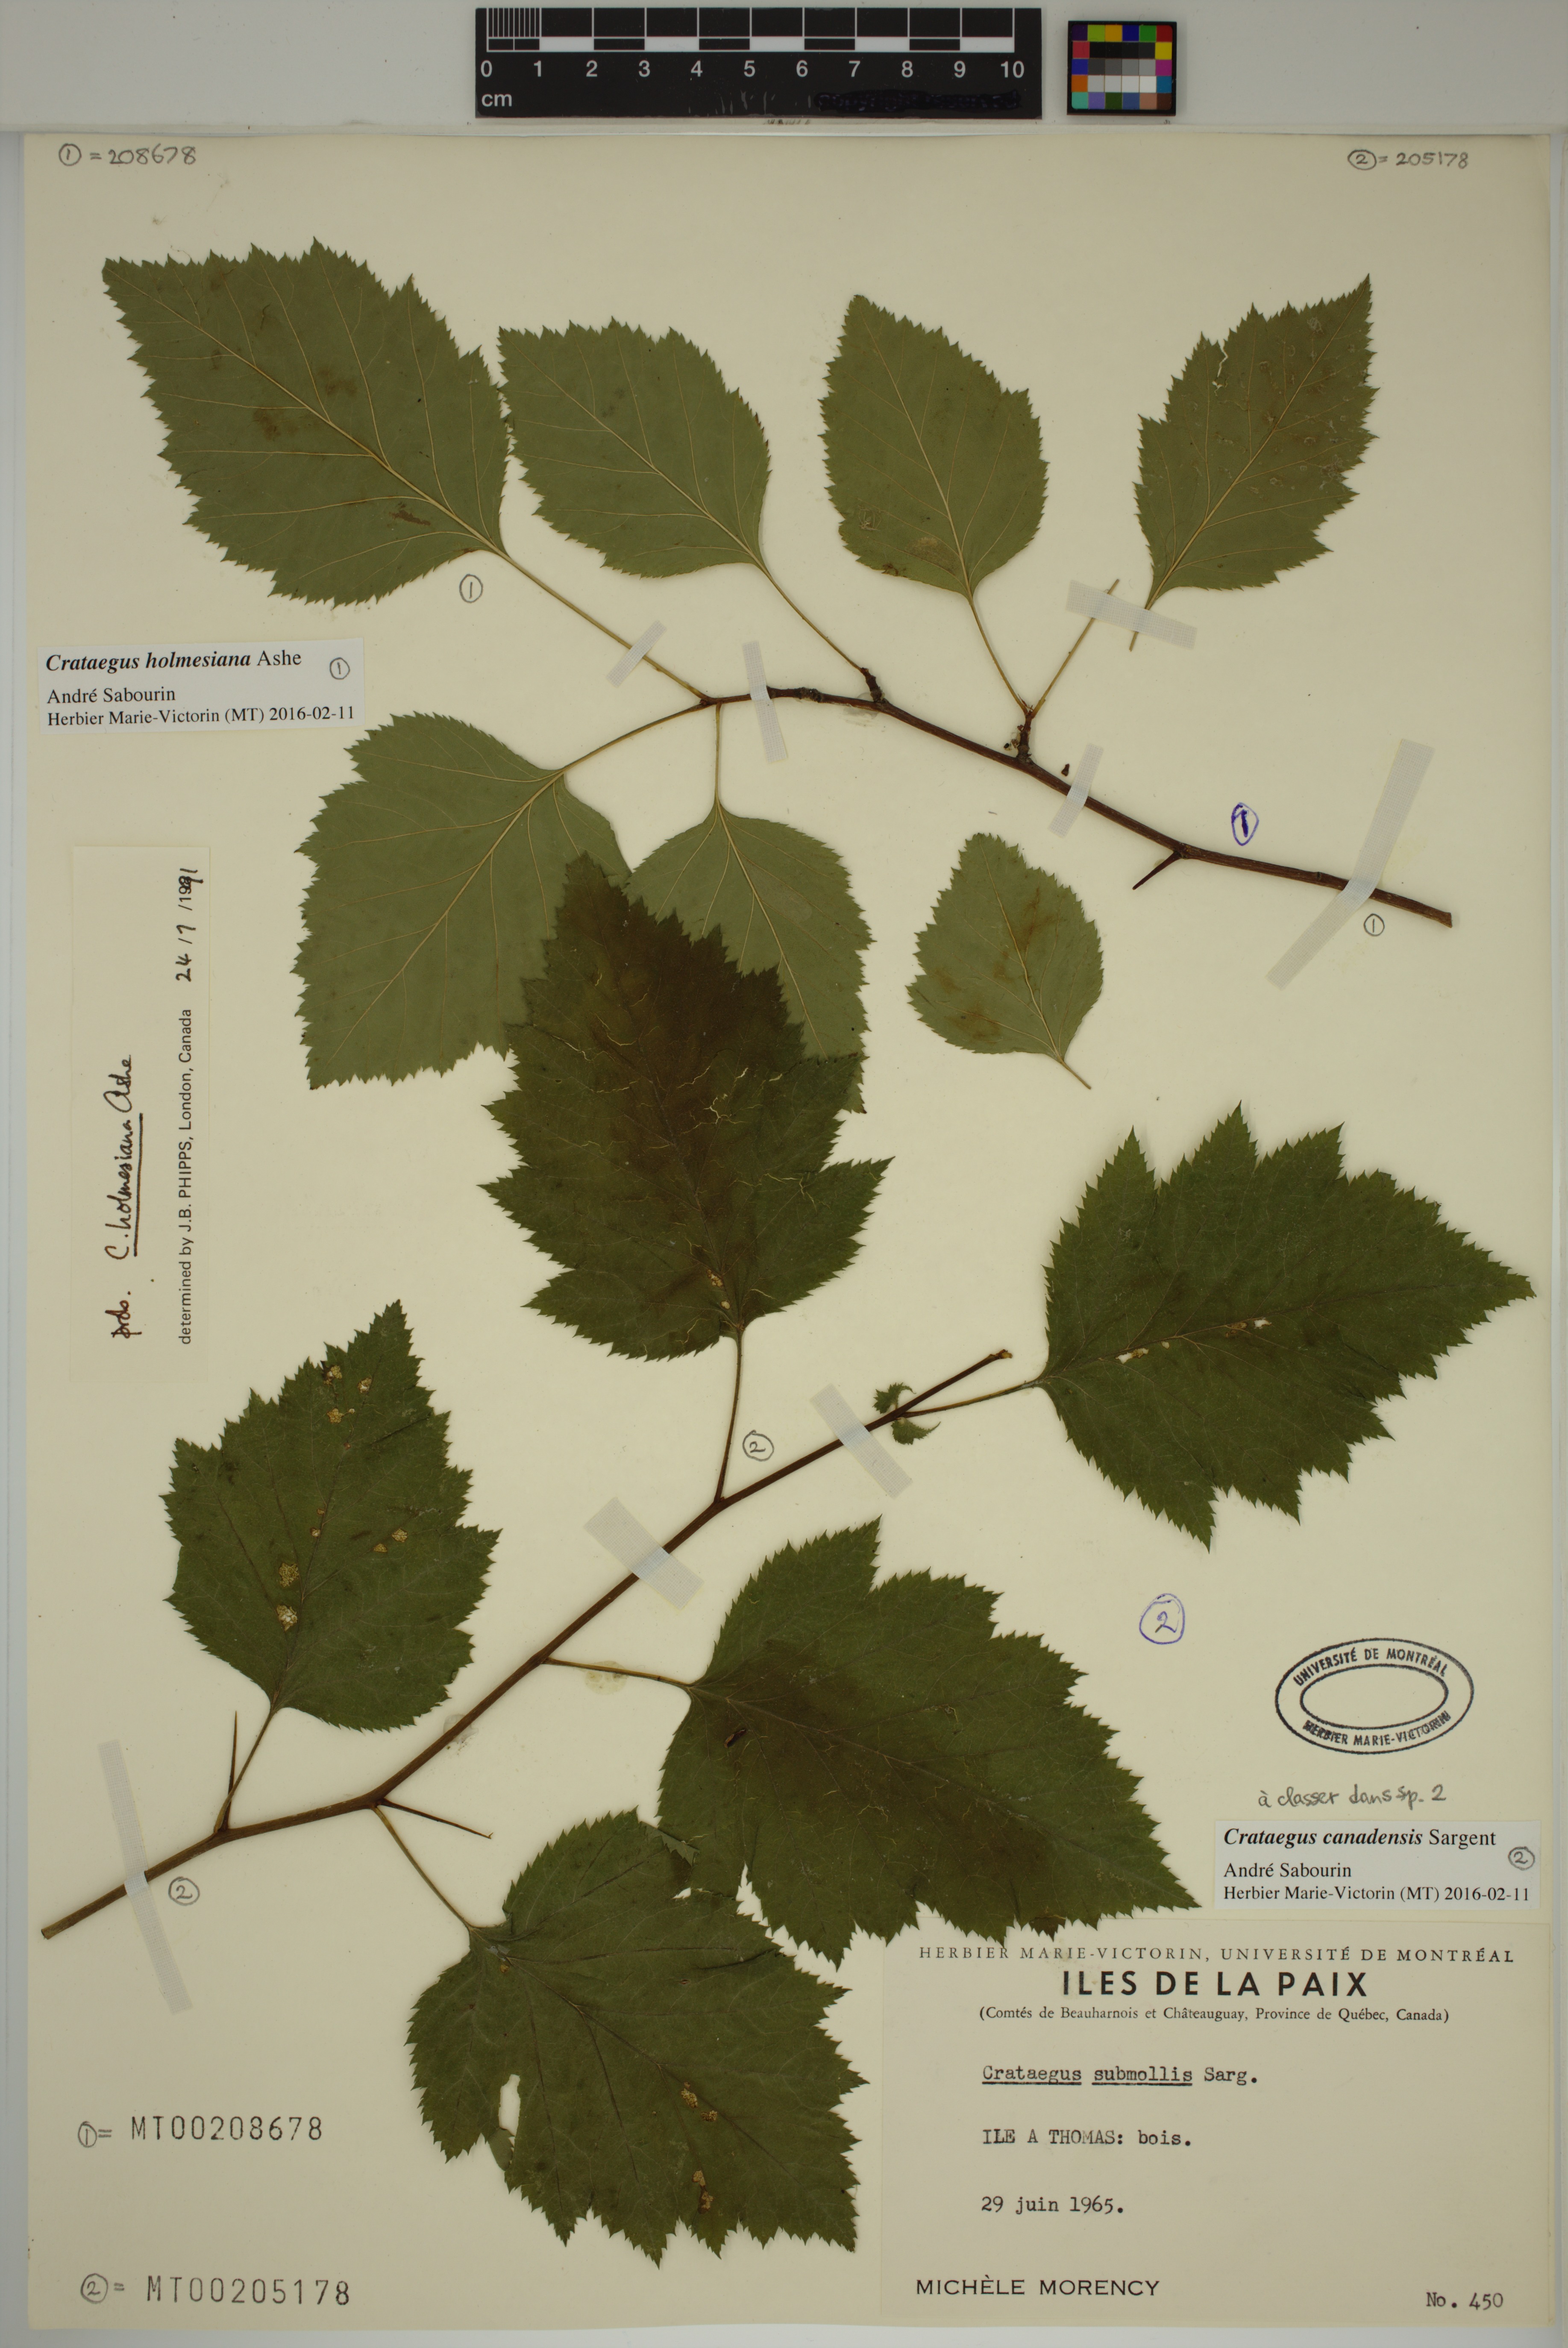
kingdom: Plantae
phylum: Tracheophyta
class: Magnoliopsida
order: Rosales
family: Rosaceae
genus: Crataegus
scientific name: Crataegus holmesiana
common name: Holmes' hawthorn
